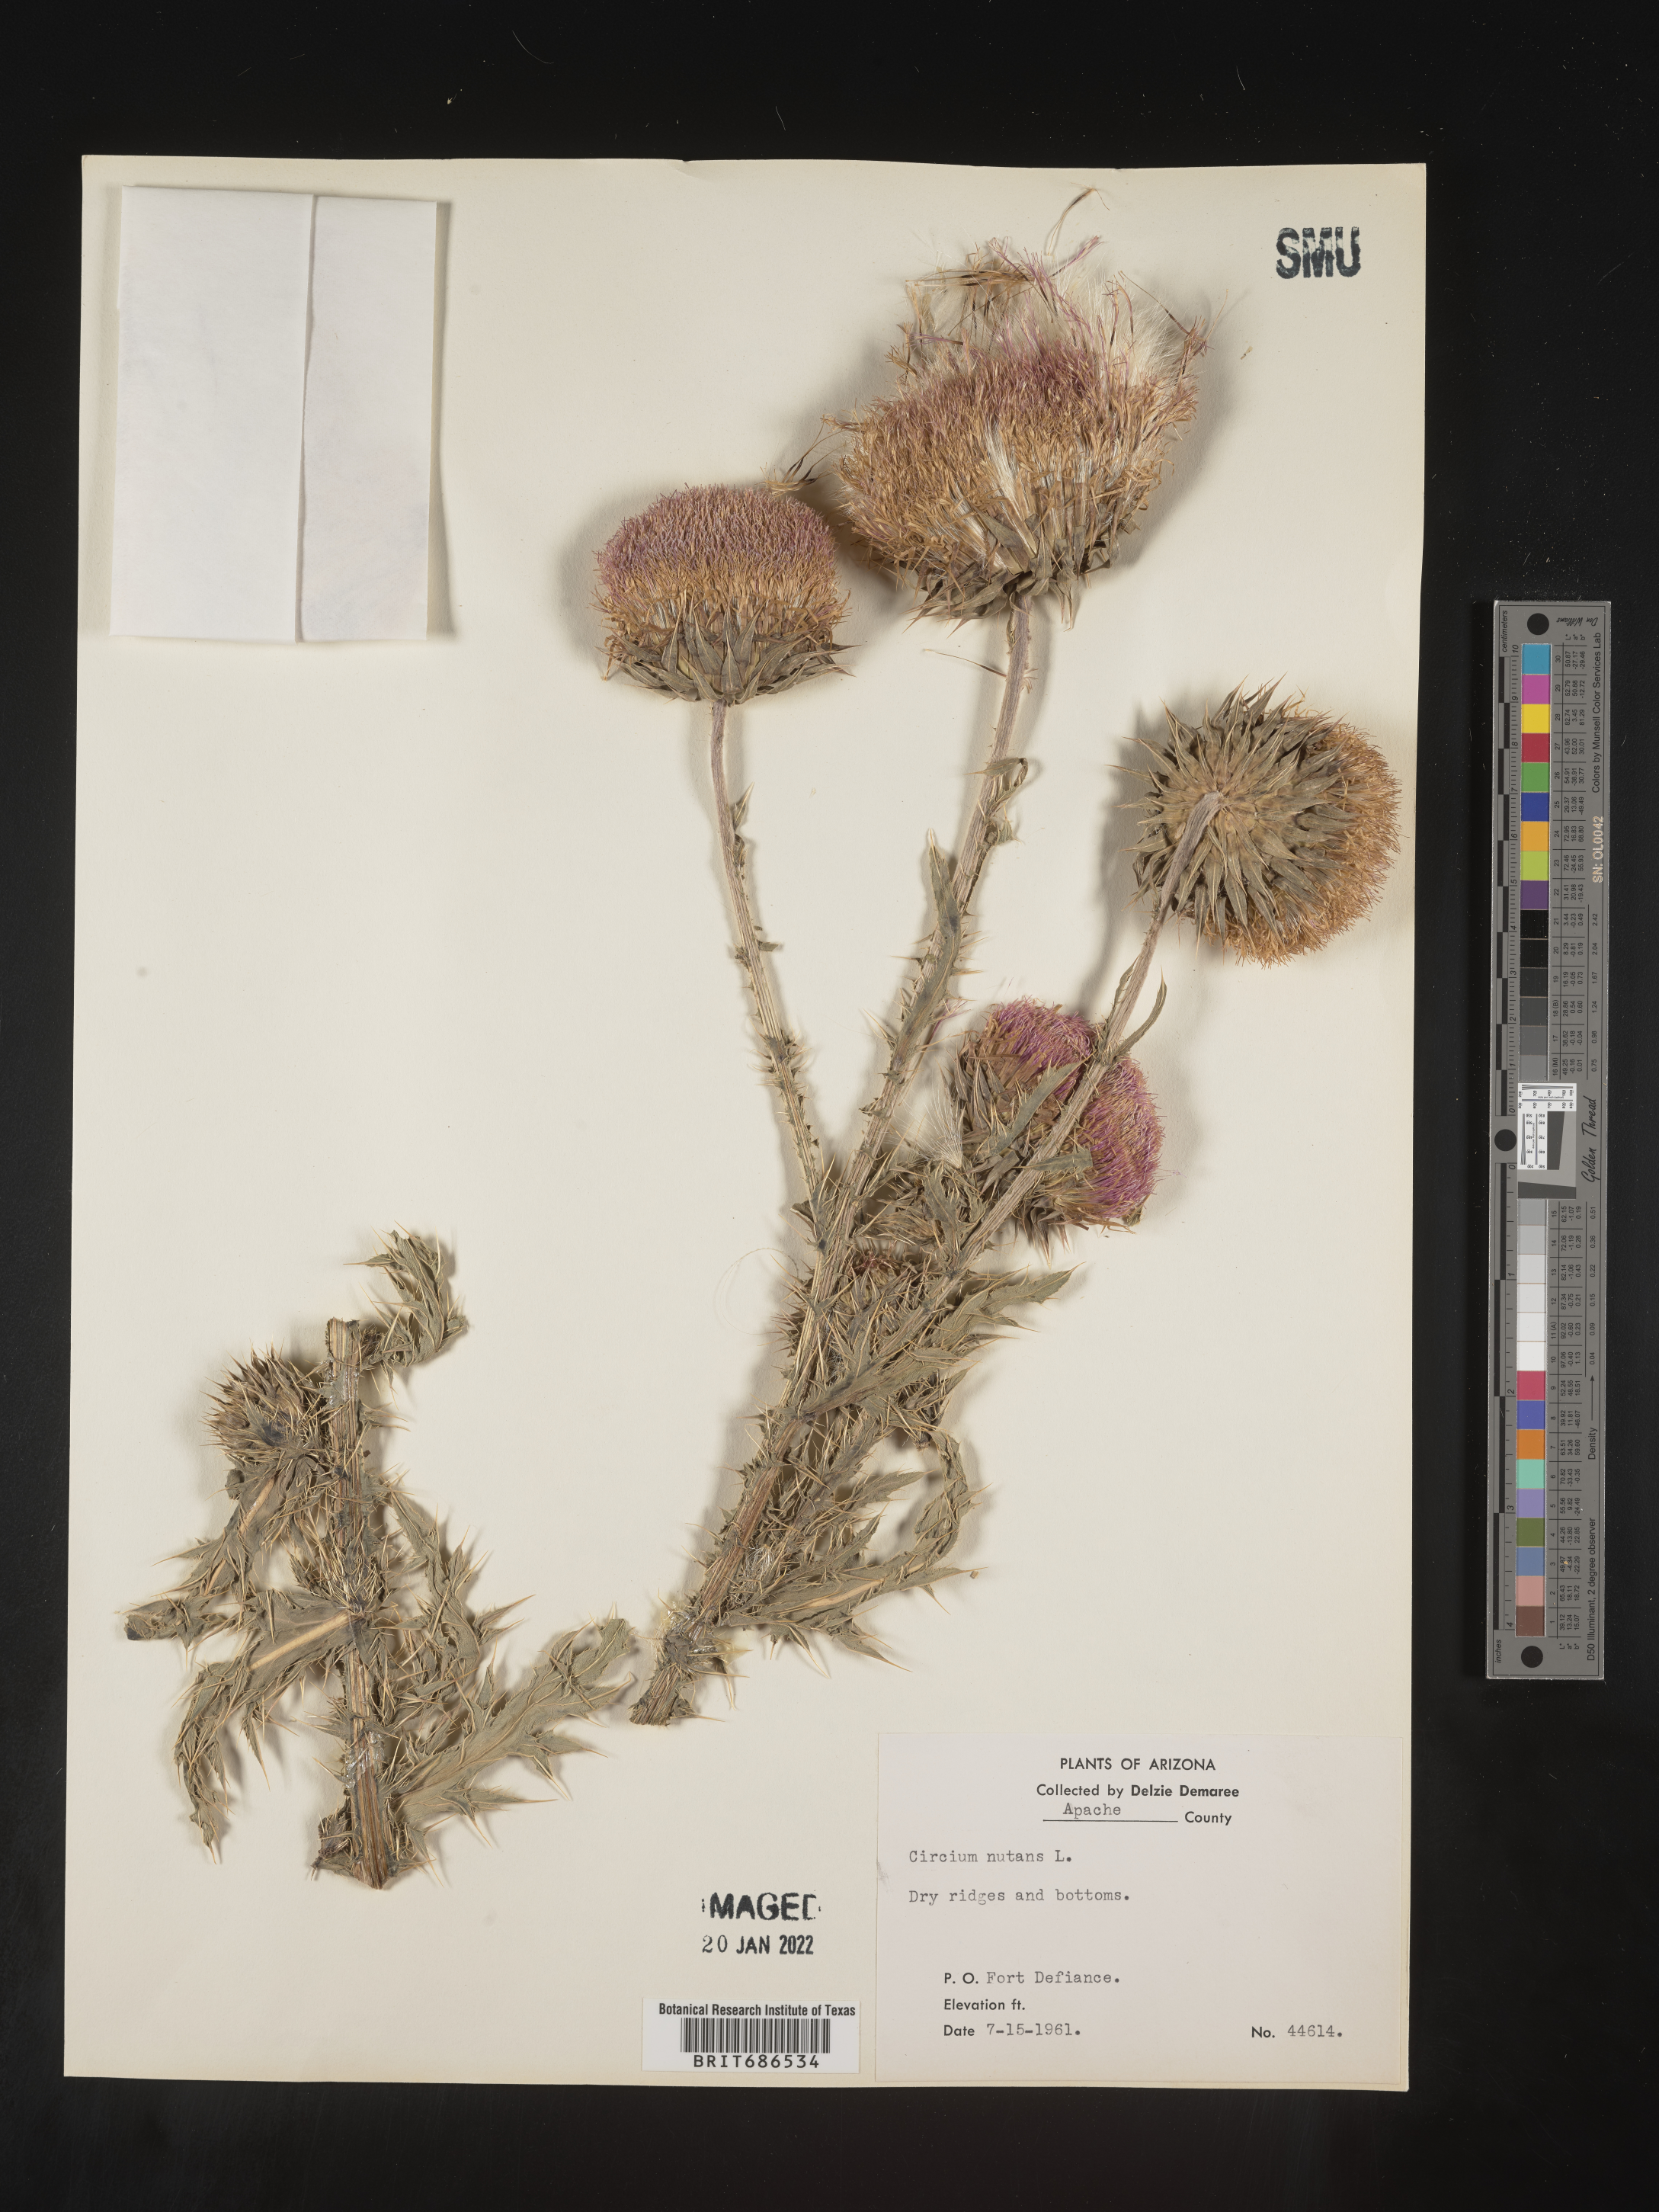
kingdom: Plantae
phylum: Tracheophyta
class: Magnoliopsida
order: Asterales
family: Asteraceae
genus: Carduus
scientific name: Carduus nutans
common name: Musk thistle
